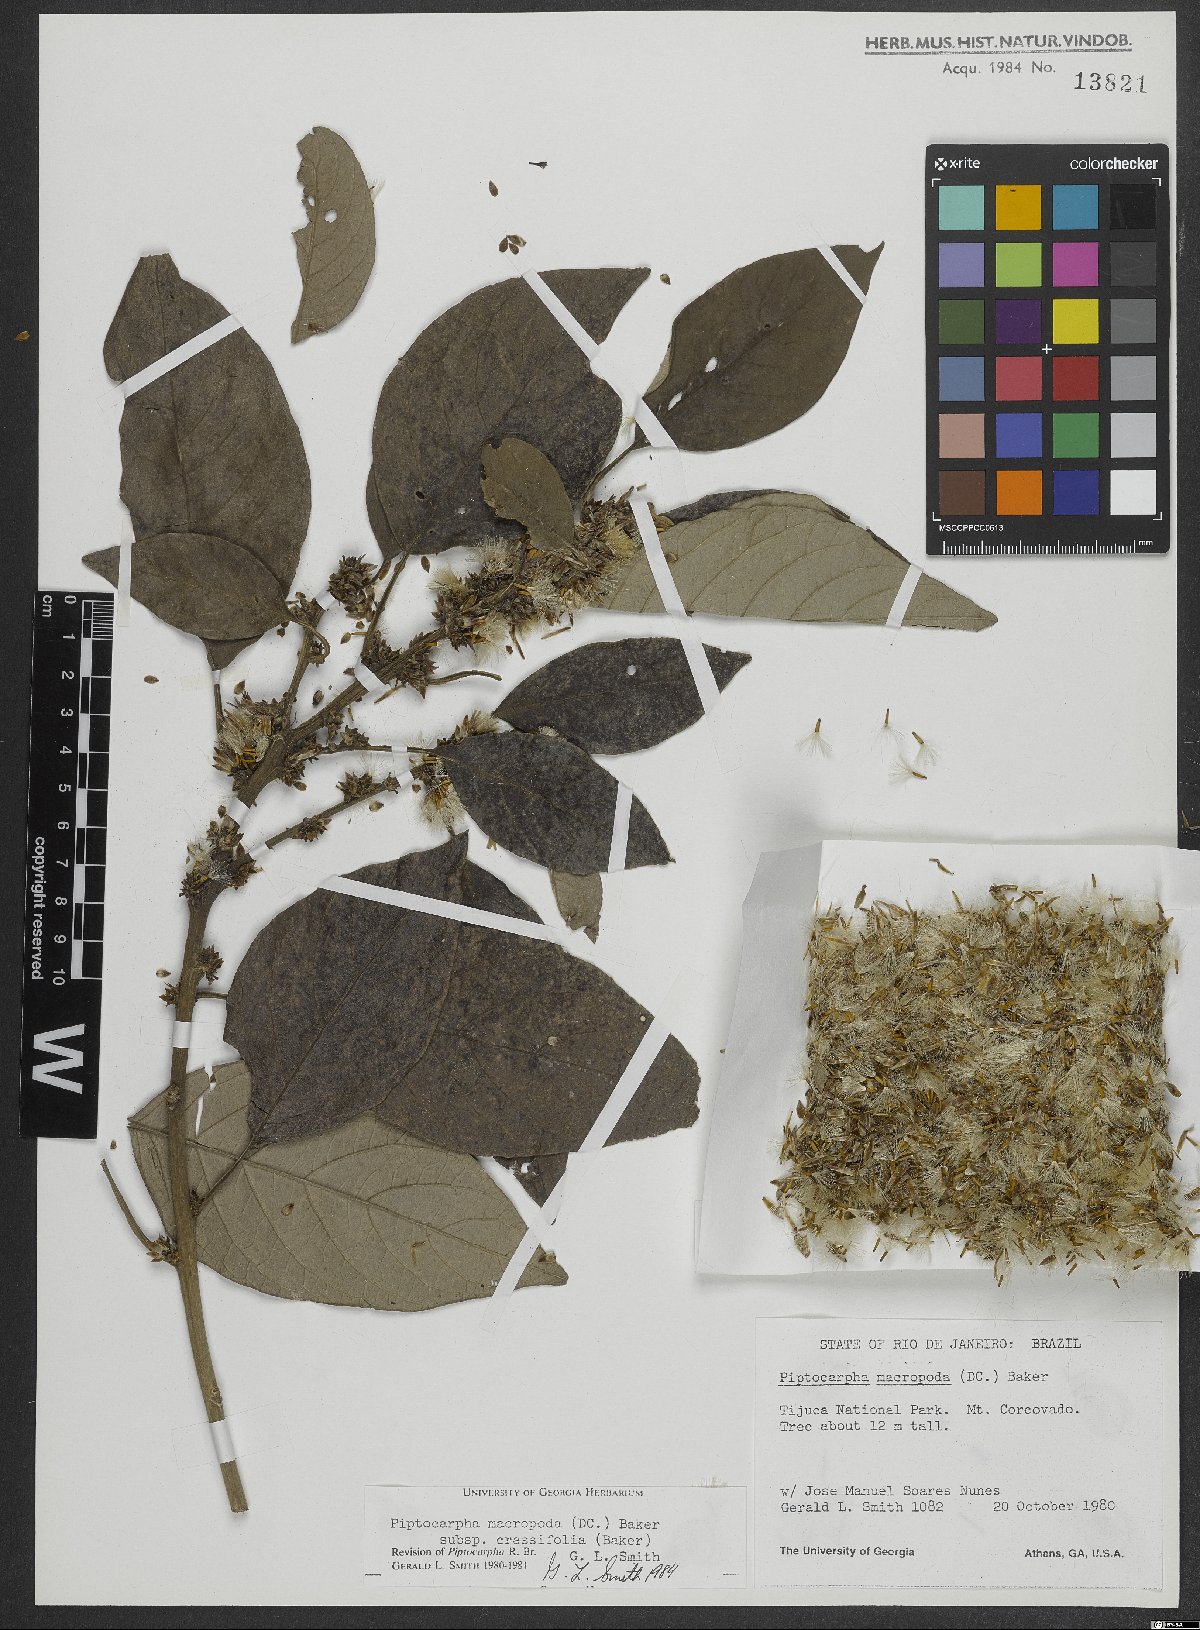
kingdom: Plantae
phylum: Tracheophyta
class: Magnoliopsida
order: Asterales
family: Asteraceae
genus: Piptocarpha
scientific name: Piptocarpha macropoda
